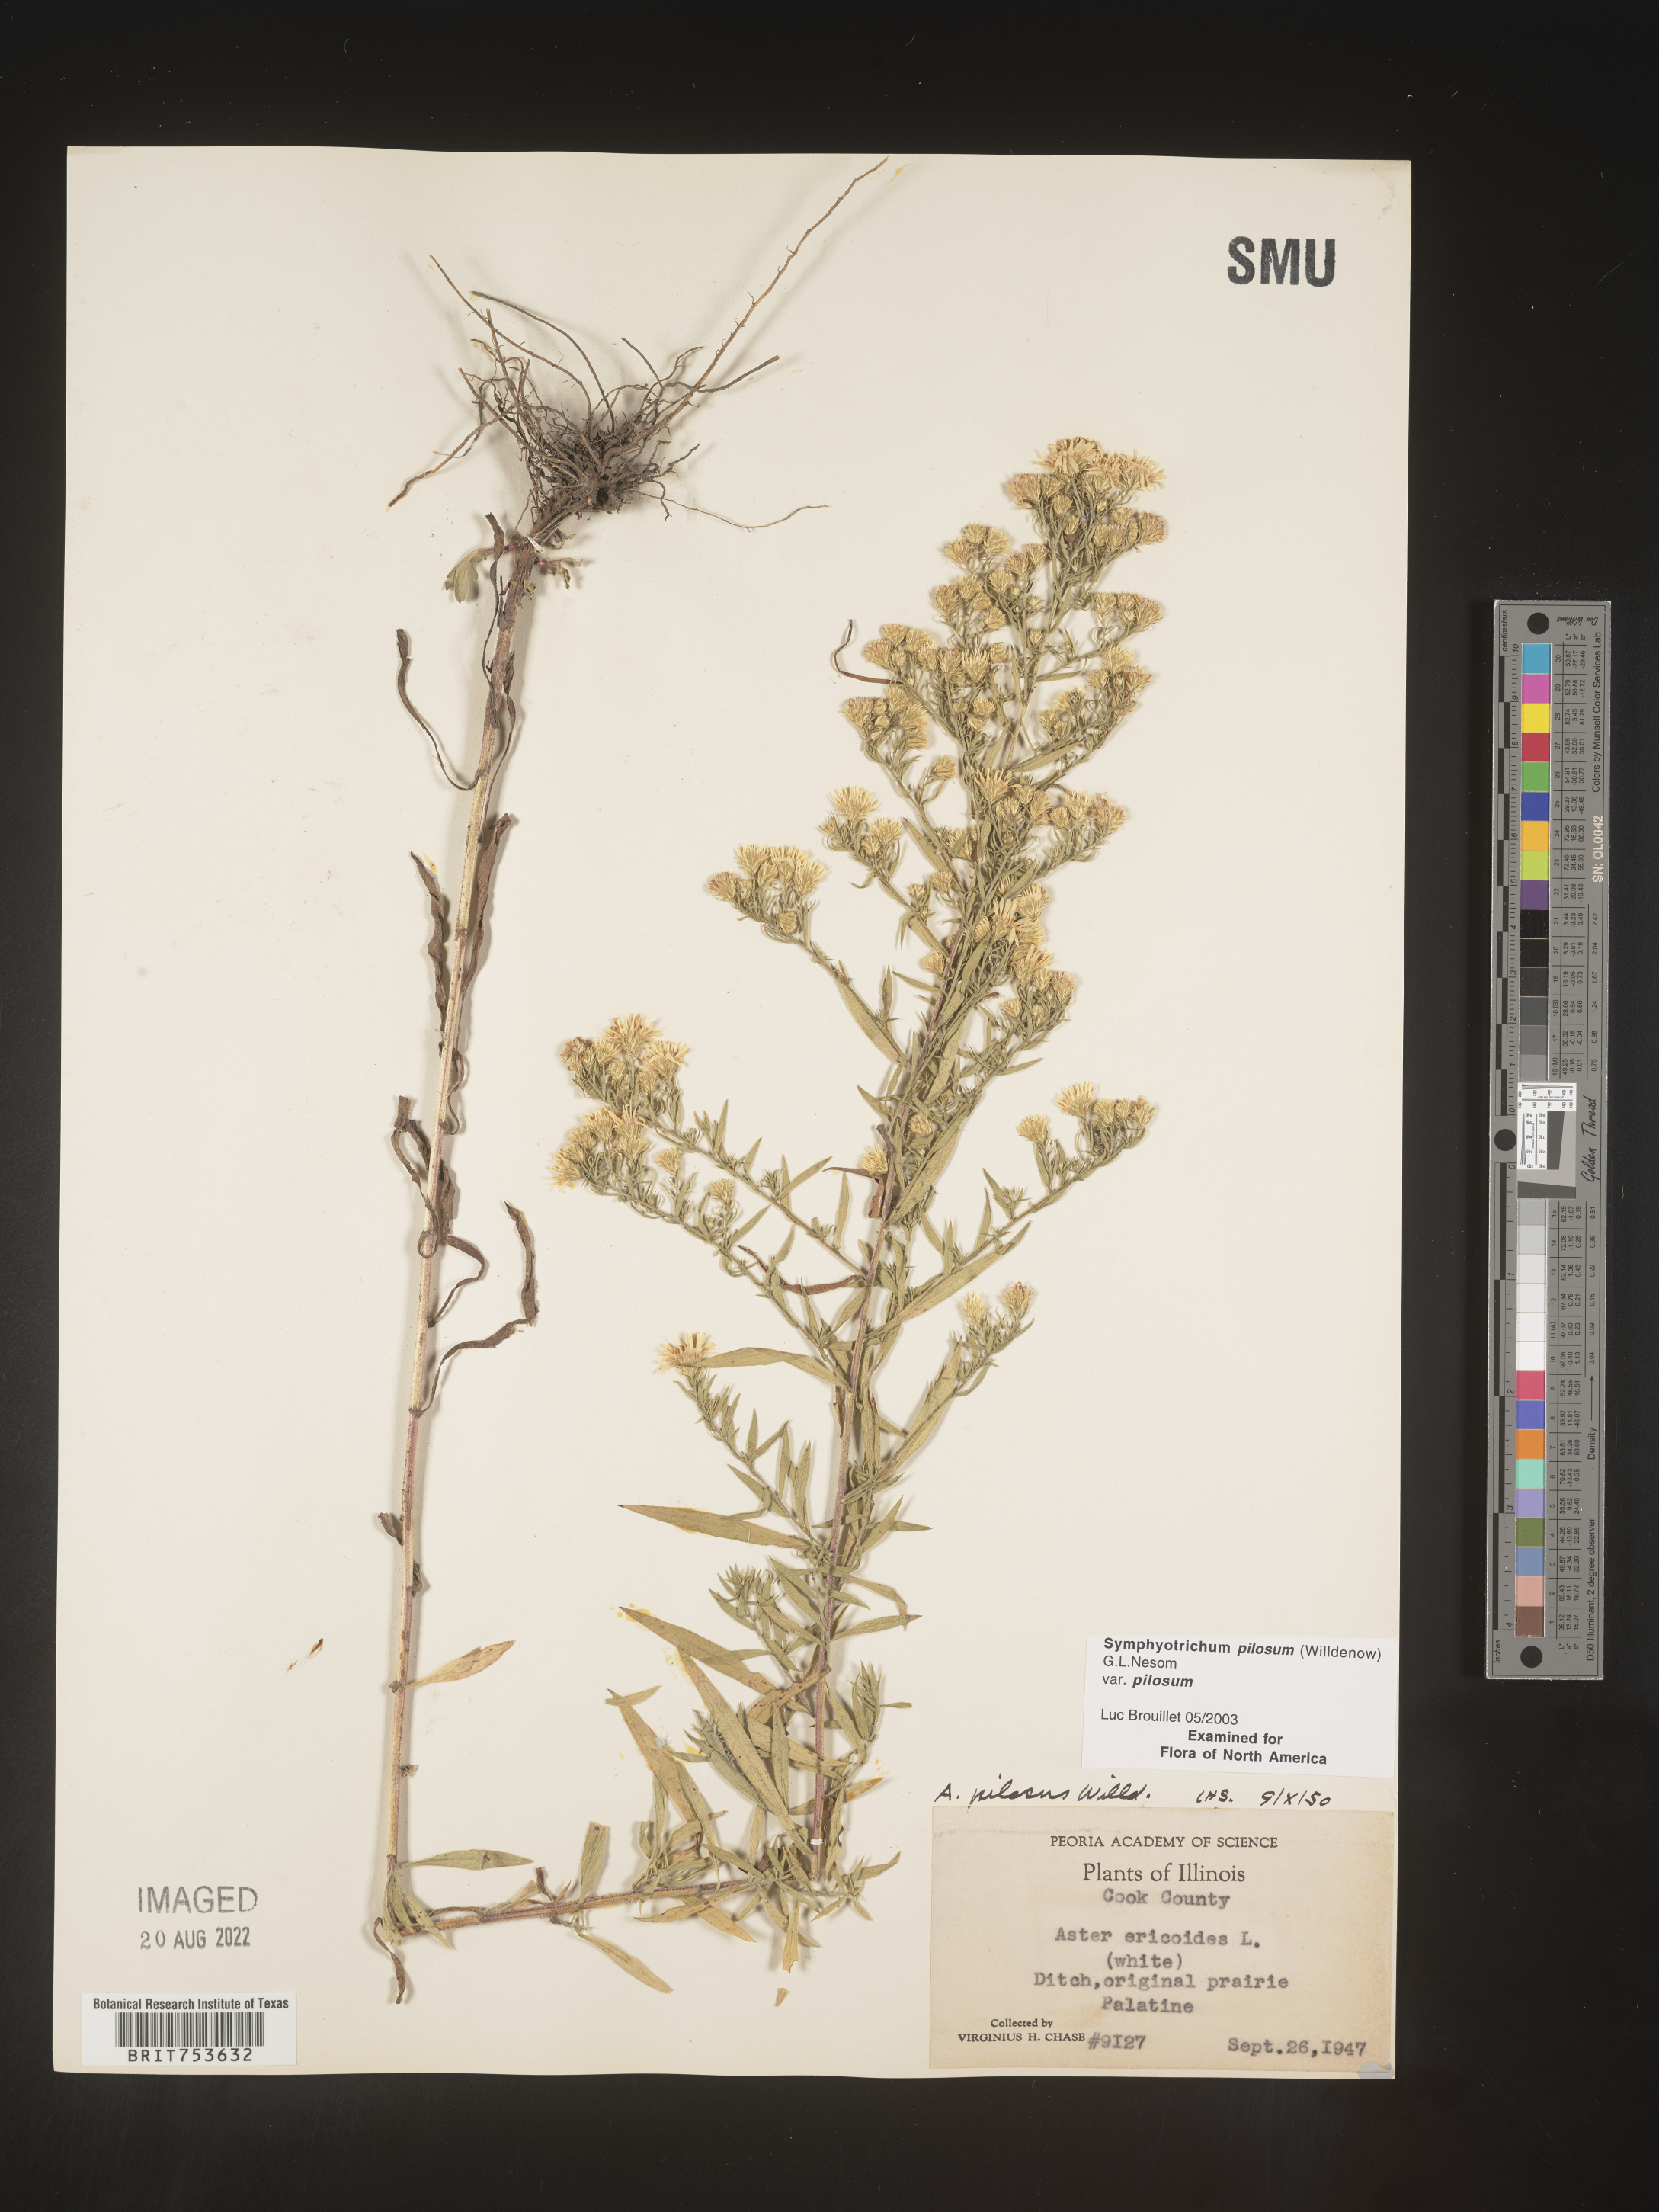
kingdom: Plantae
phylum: Tracheophyta
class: Magnoliopsida
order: Asterales
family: Asteraceae
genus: Symphyotrichum
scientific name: Symphyotrichum pilosum
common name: Awl aster
